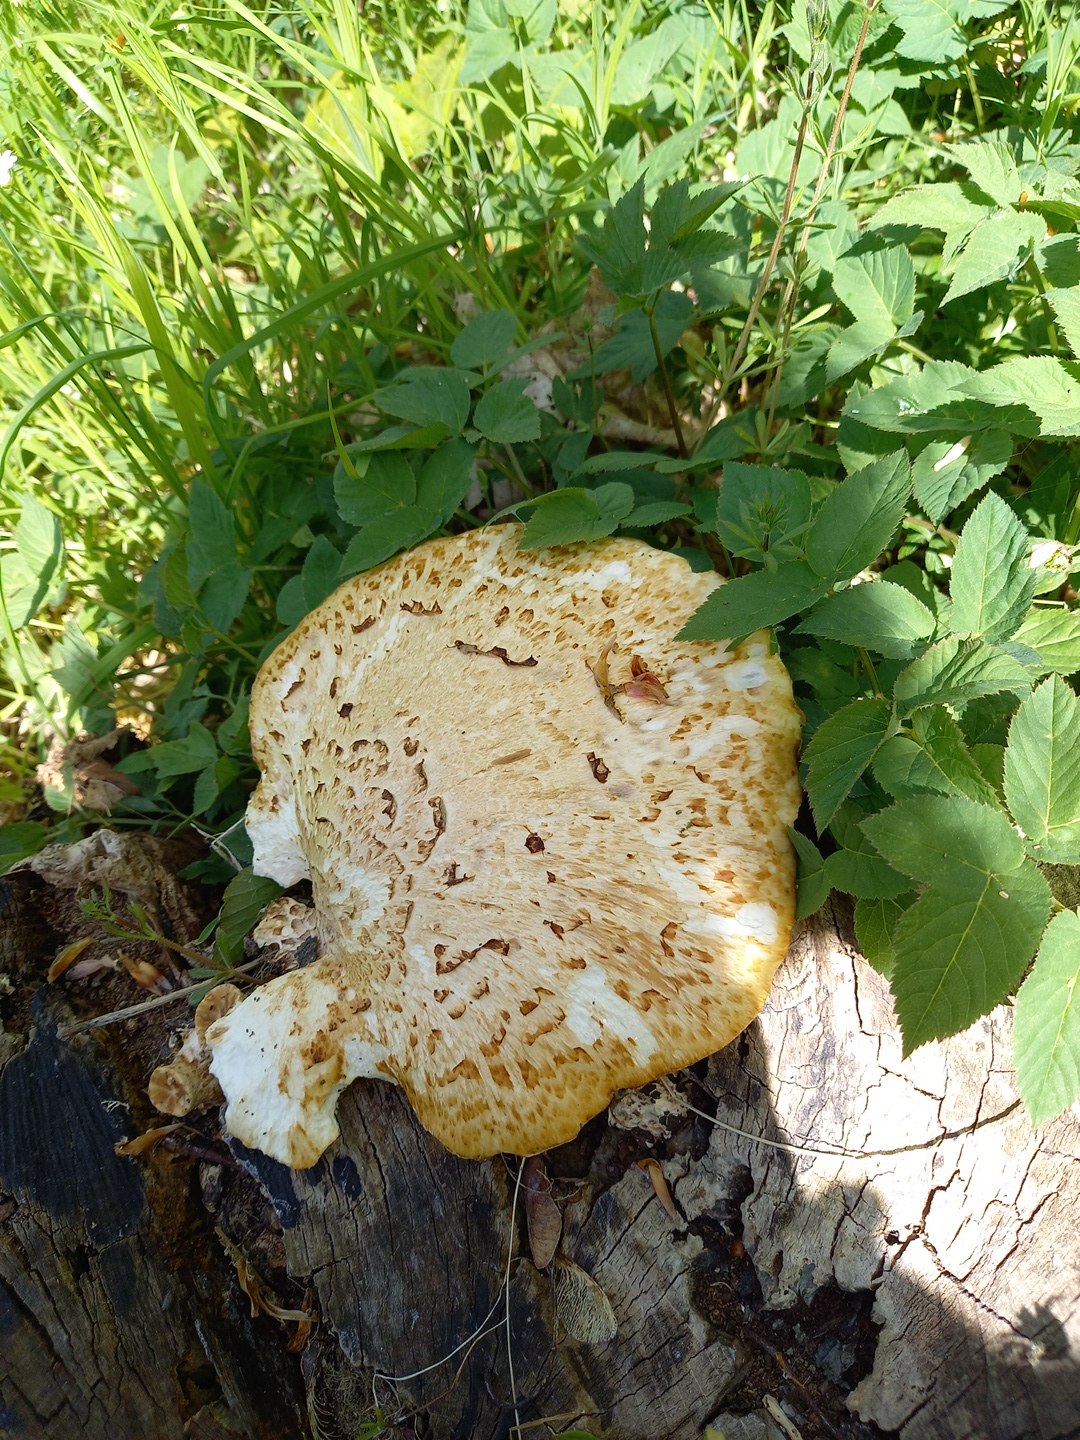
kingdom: Fungi
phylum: Basidiomycota
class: Agaricomycetes
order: Polyporales
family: Polyporaceae
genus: Cerioporus
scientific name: Cerioporus squamosus
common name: skællet stilkporesvamp
